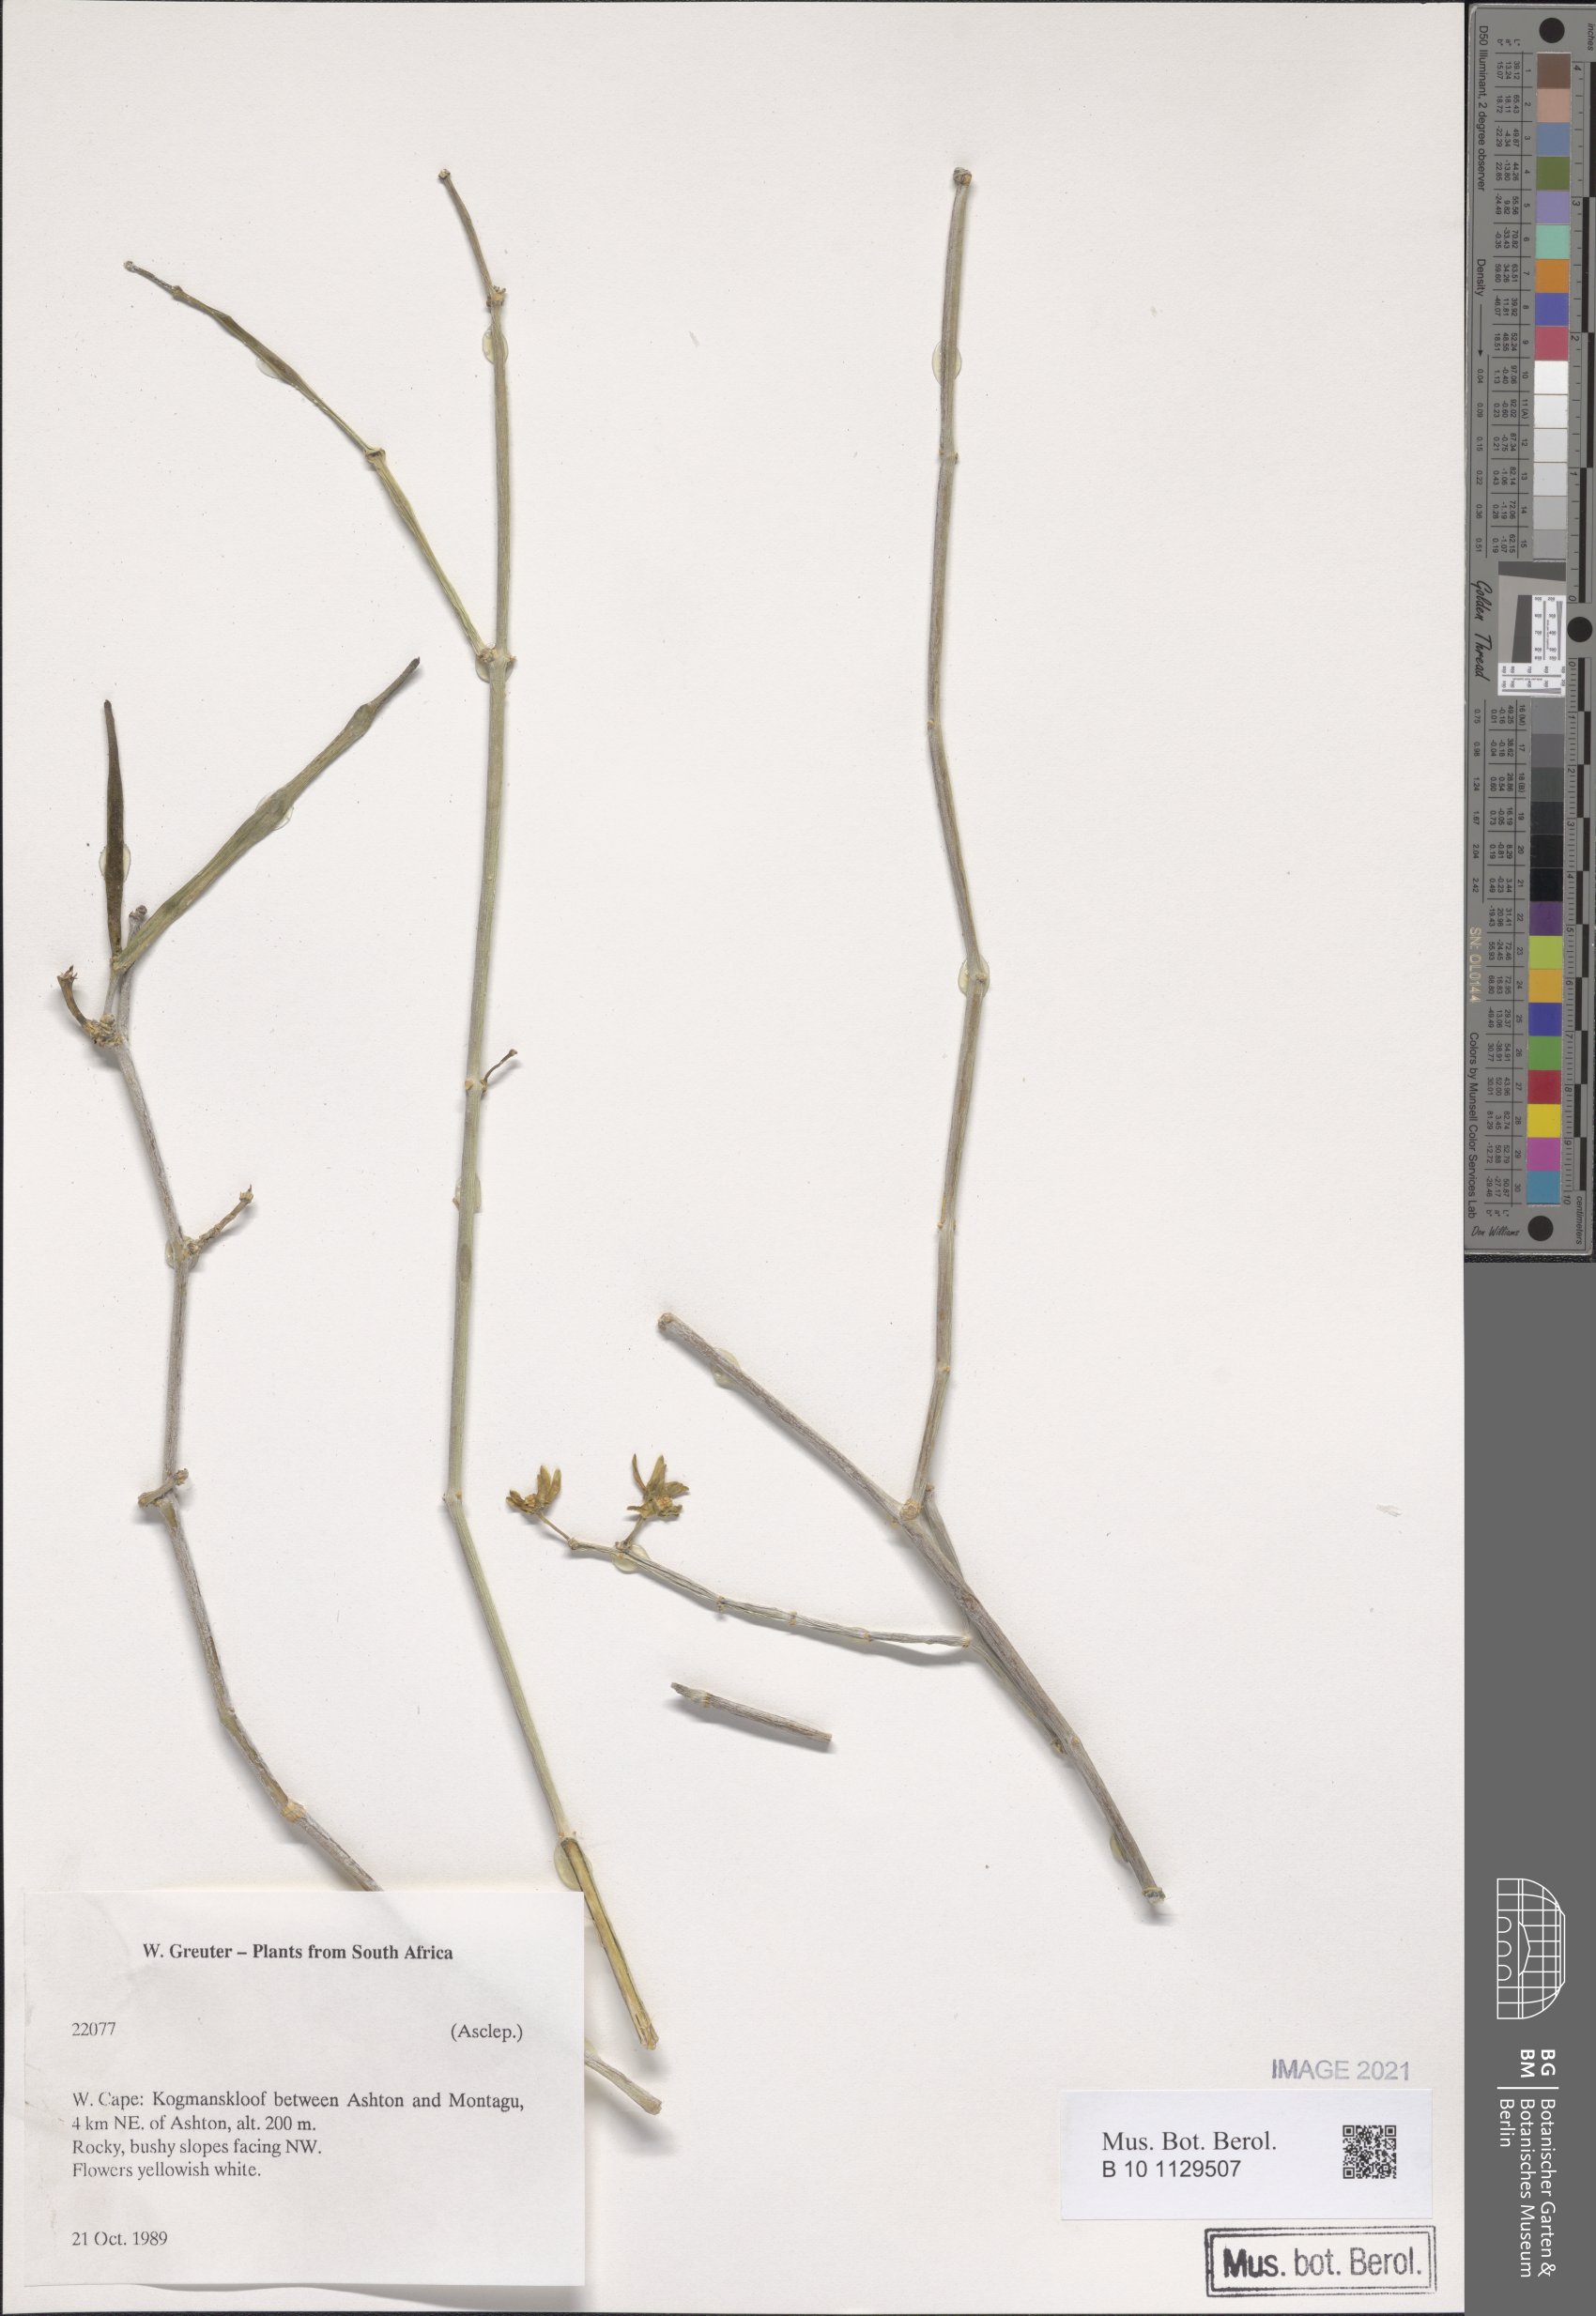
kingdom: Plantae
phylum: Tracheophyta
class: Magnoliopsida
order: Gentianales
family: Apocynaceae
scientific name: Apocynaceae
